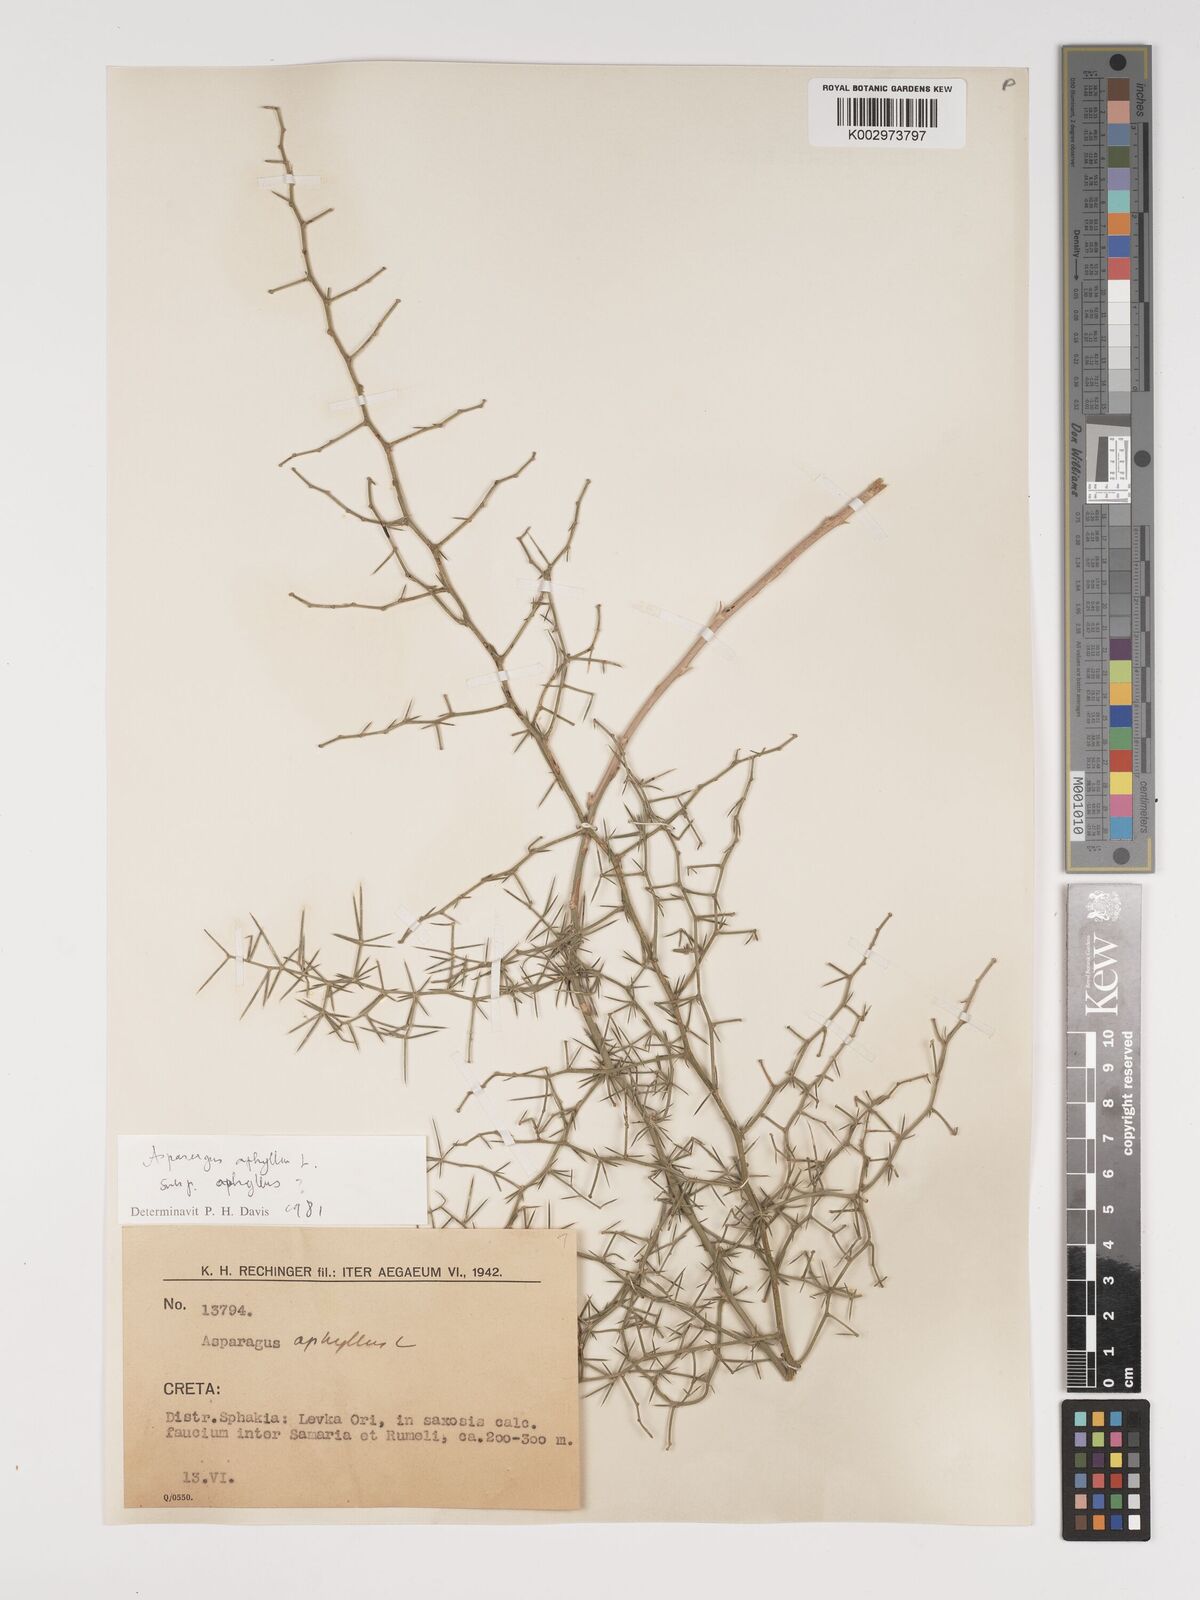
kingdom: Plantae
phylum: Tracheophyta
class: Liliopsida
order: Asparagales
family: Asparagaceae
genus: Asparagus
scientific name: Asparagus aphyllus
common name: Mediterranean asparagus
